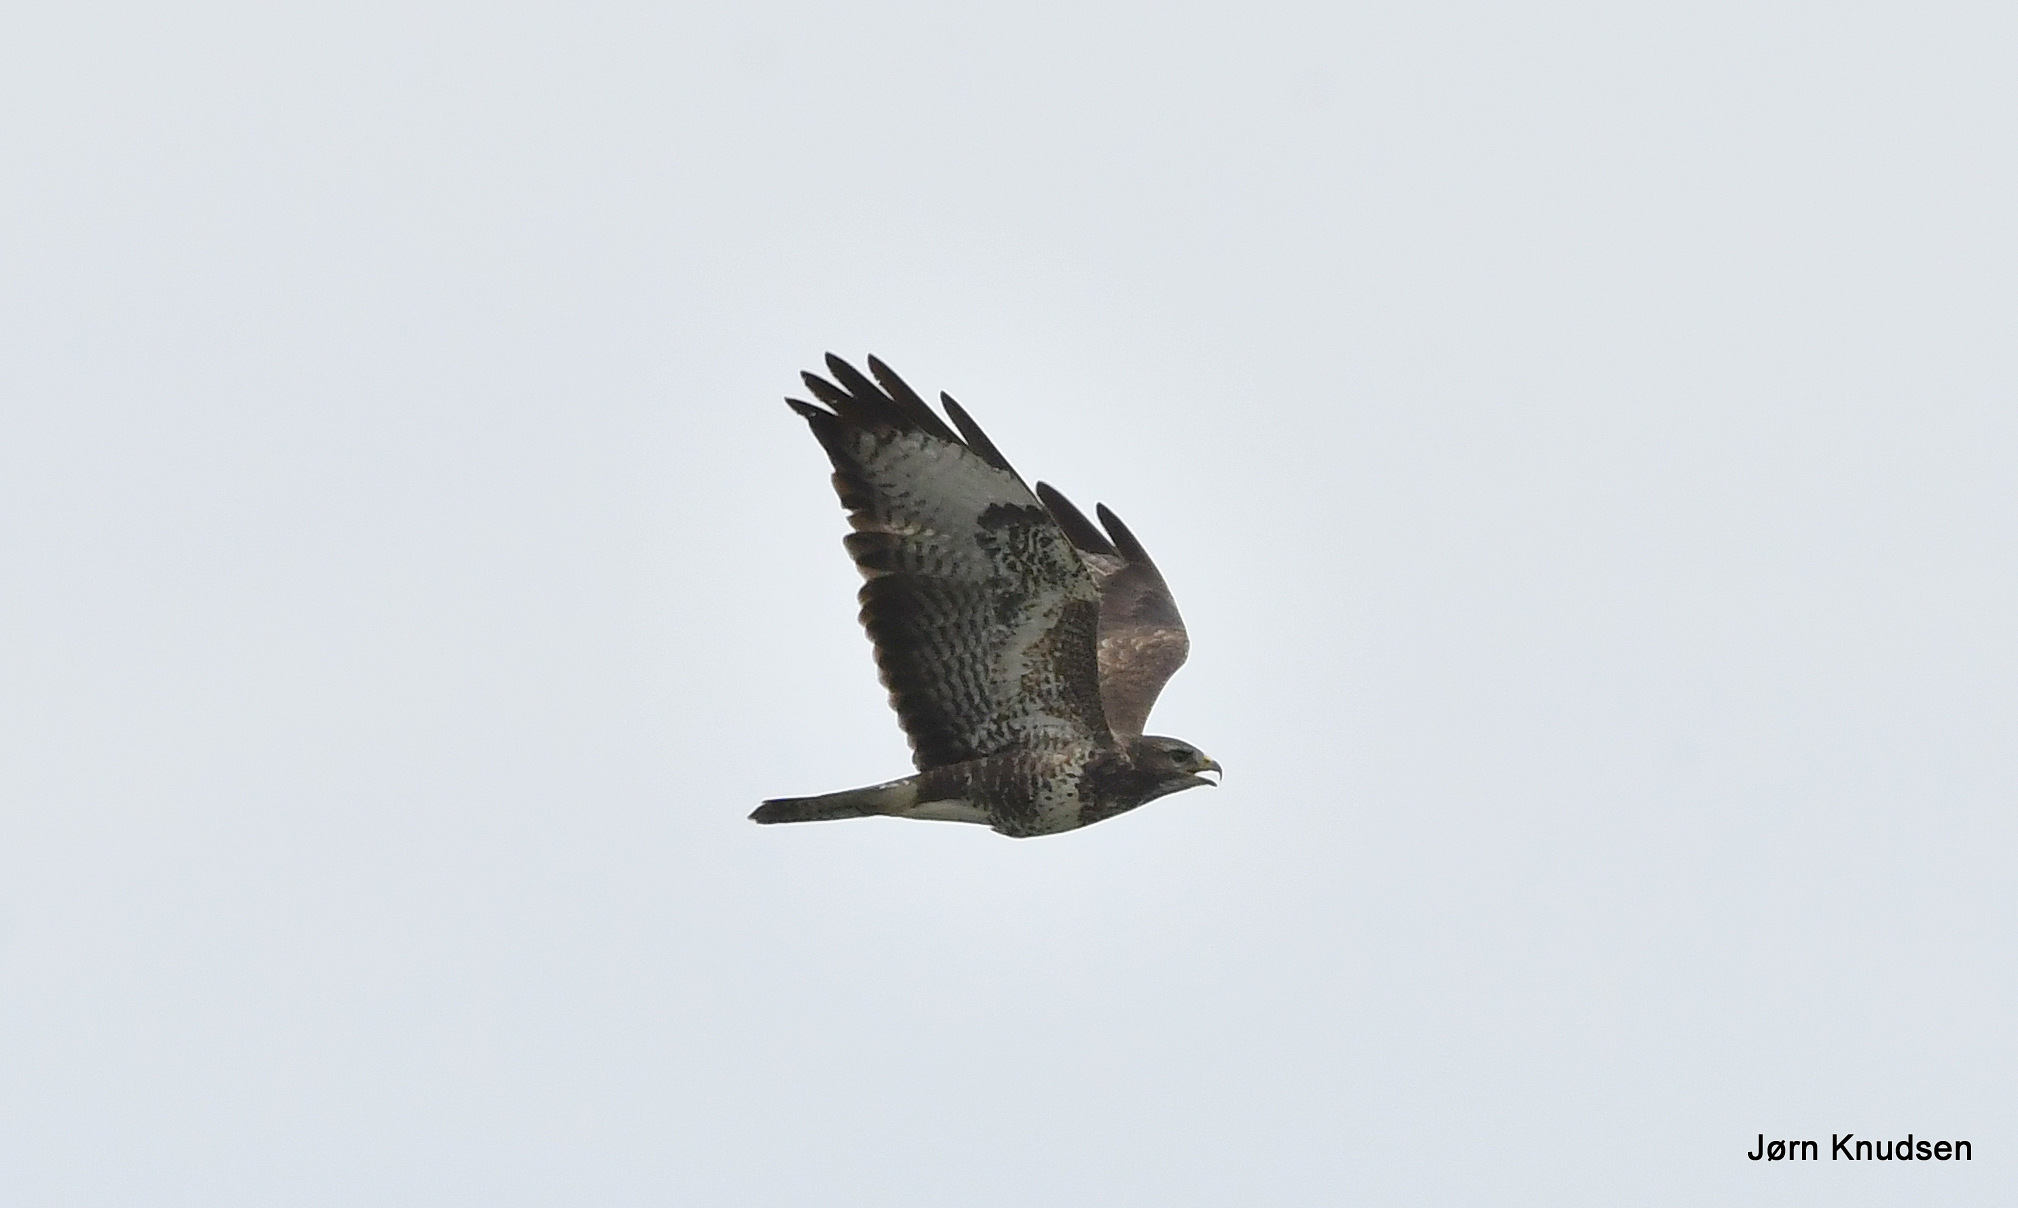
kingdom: Animalia
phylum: Chordata
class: Aves
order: Accipitriformes
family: Accipitridae
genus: Buteo
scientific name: Buteo buteo
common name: Musvåge
